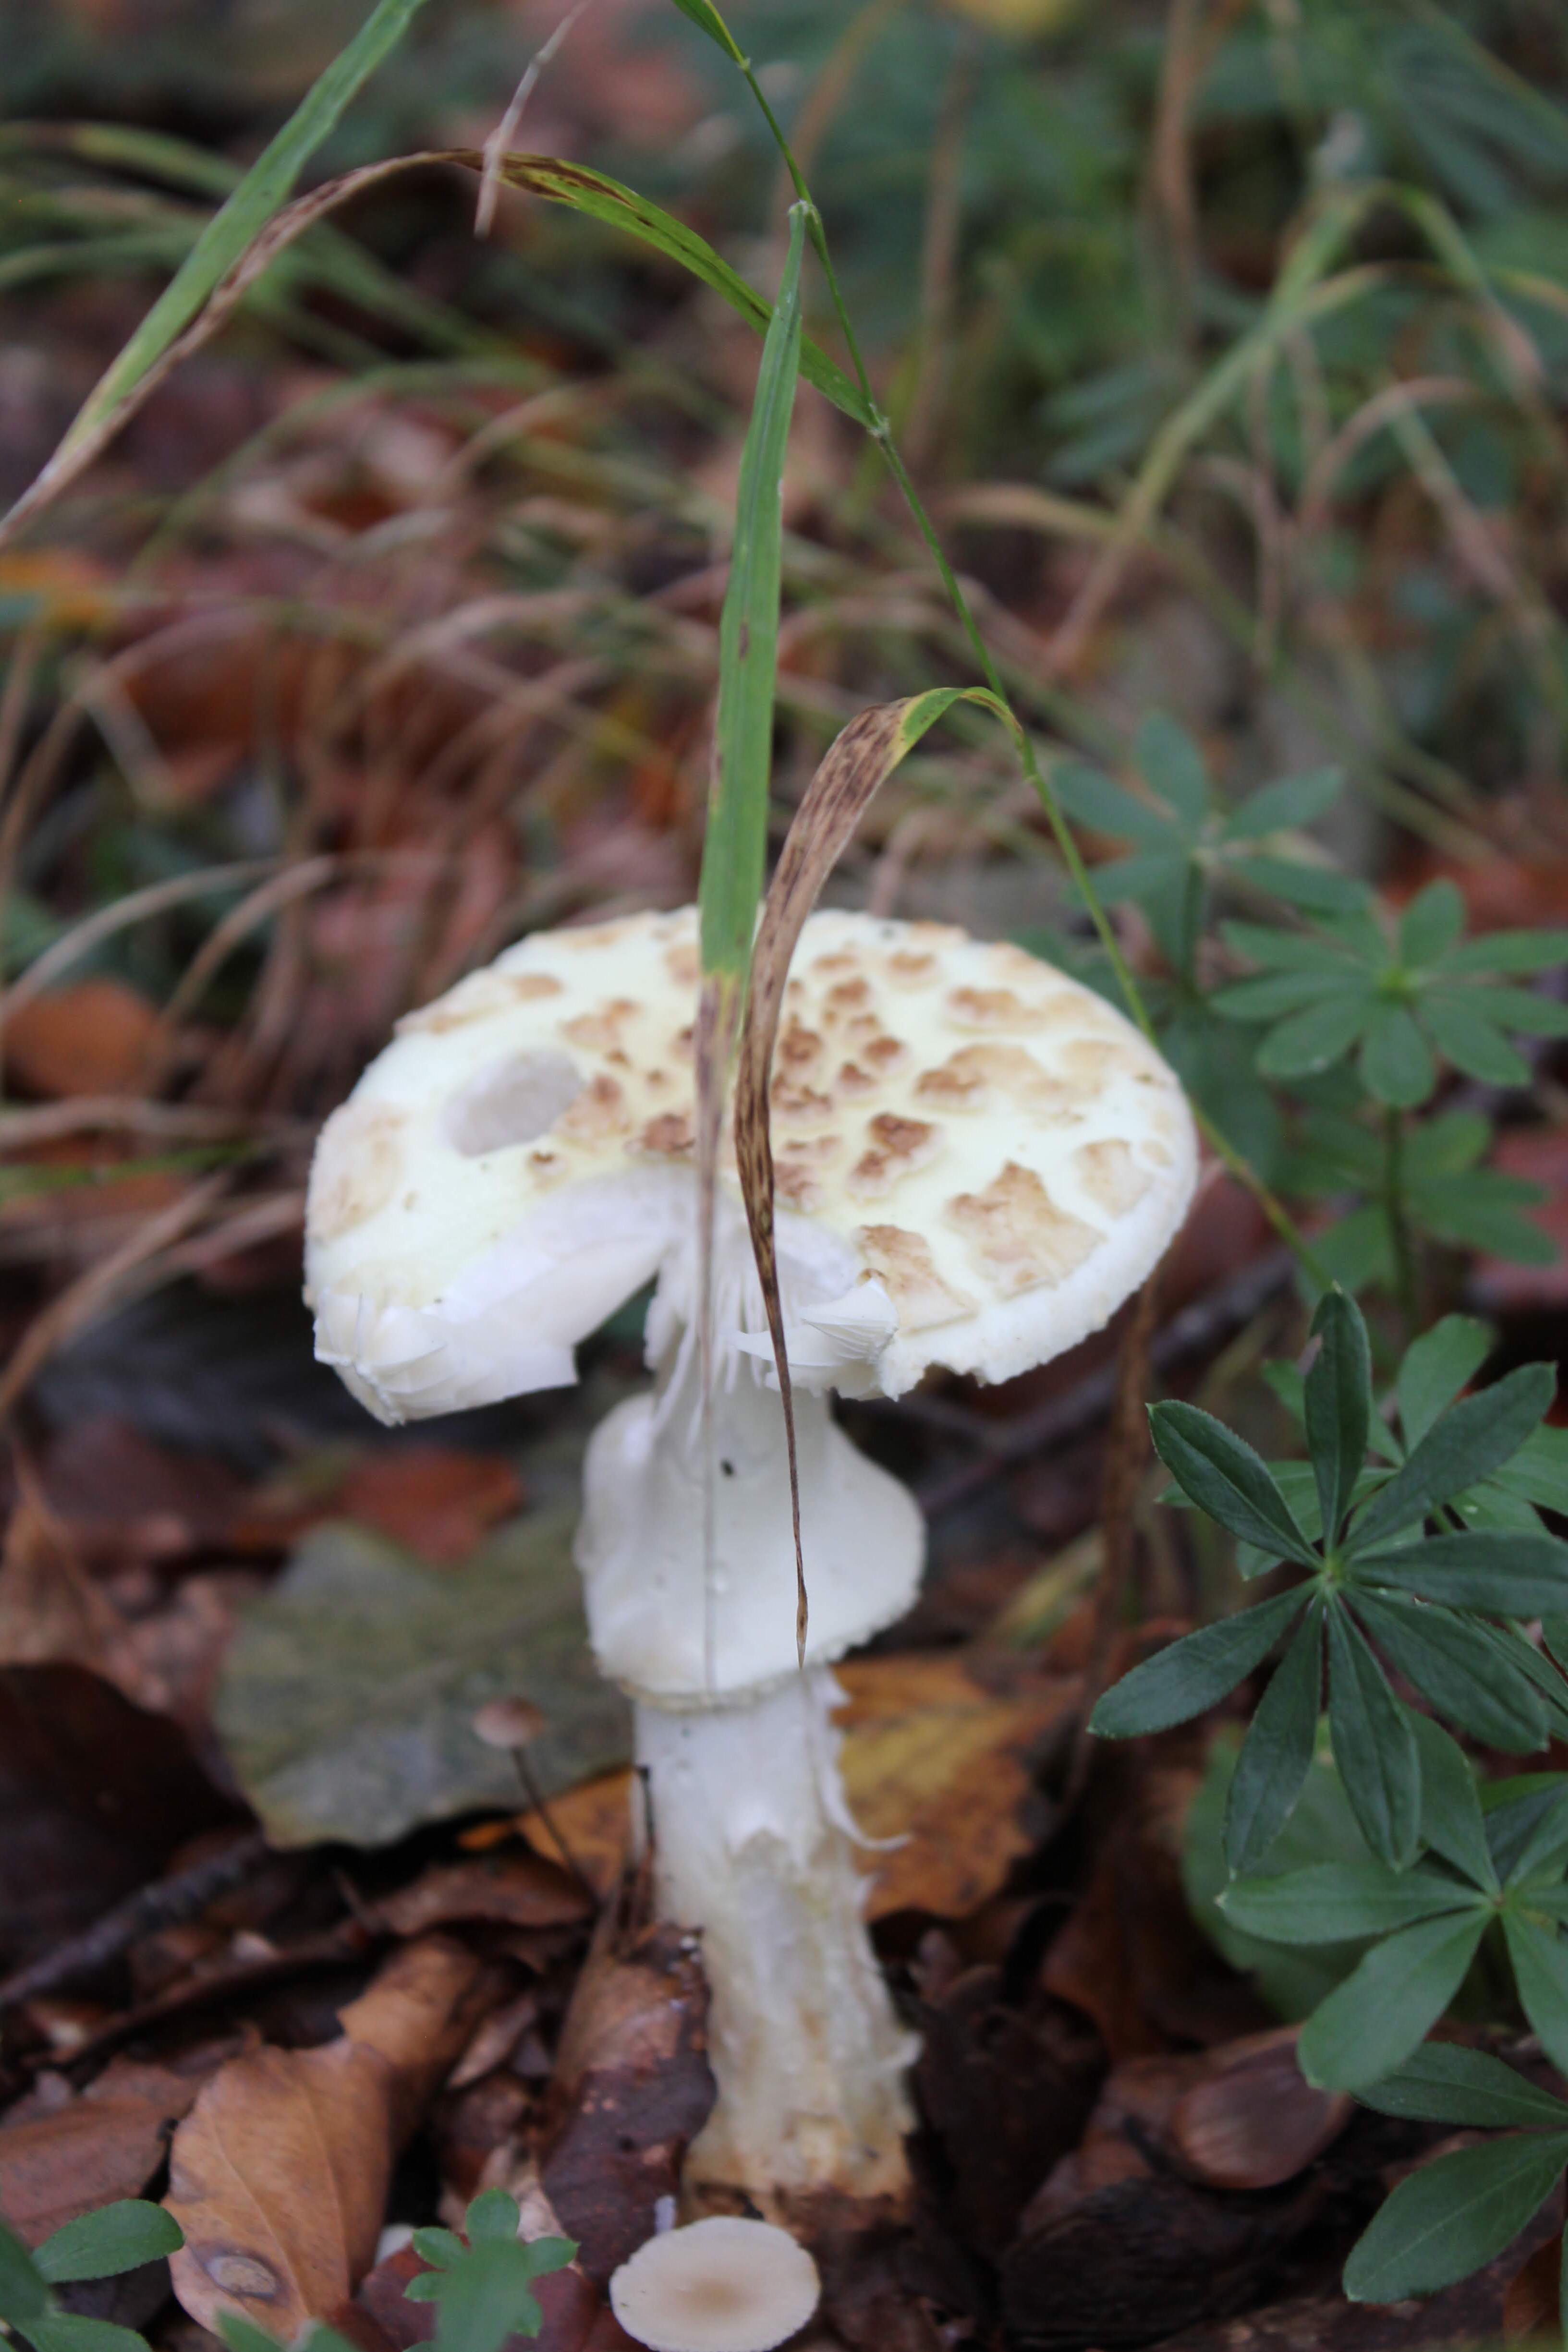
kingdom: Fungi
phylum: Basidiomycota
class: Agaricomycetes
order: Agaricales
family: Amanitaceae
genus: Amanita
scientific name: Amanita citrina
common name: kugleknoldet fluesvamp
